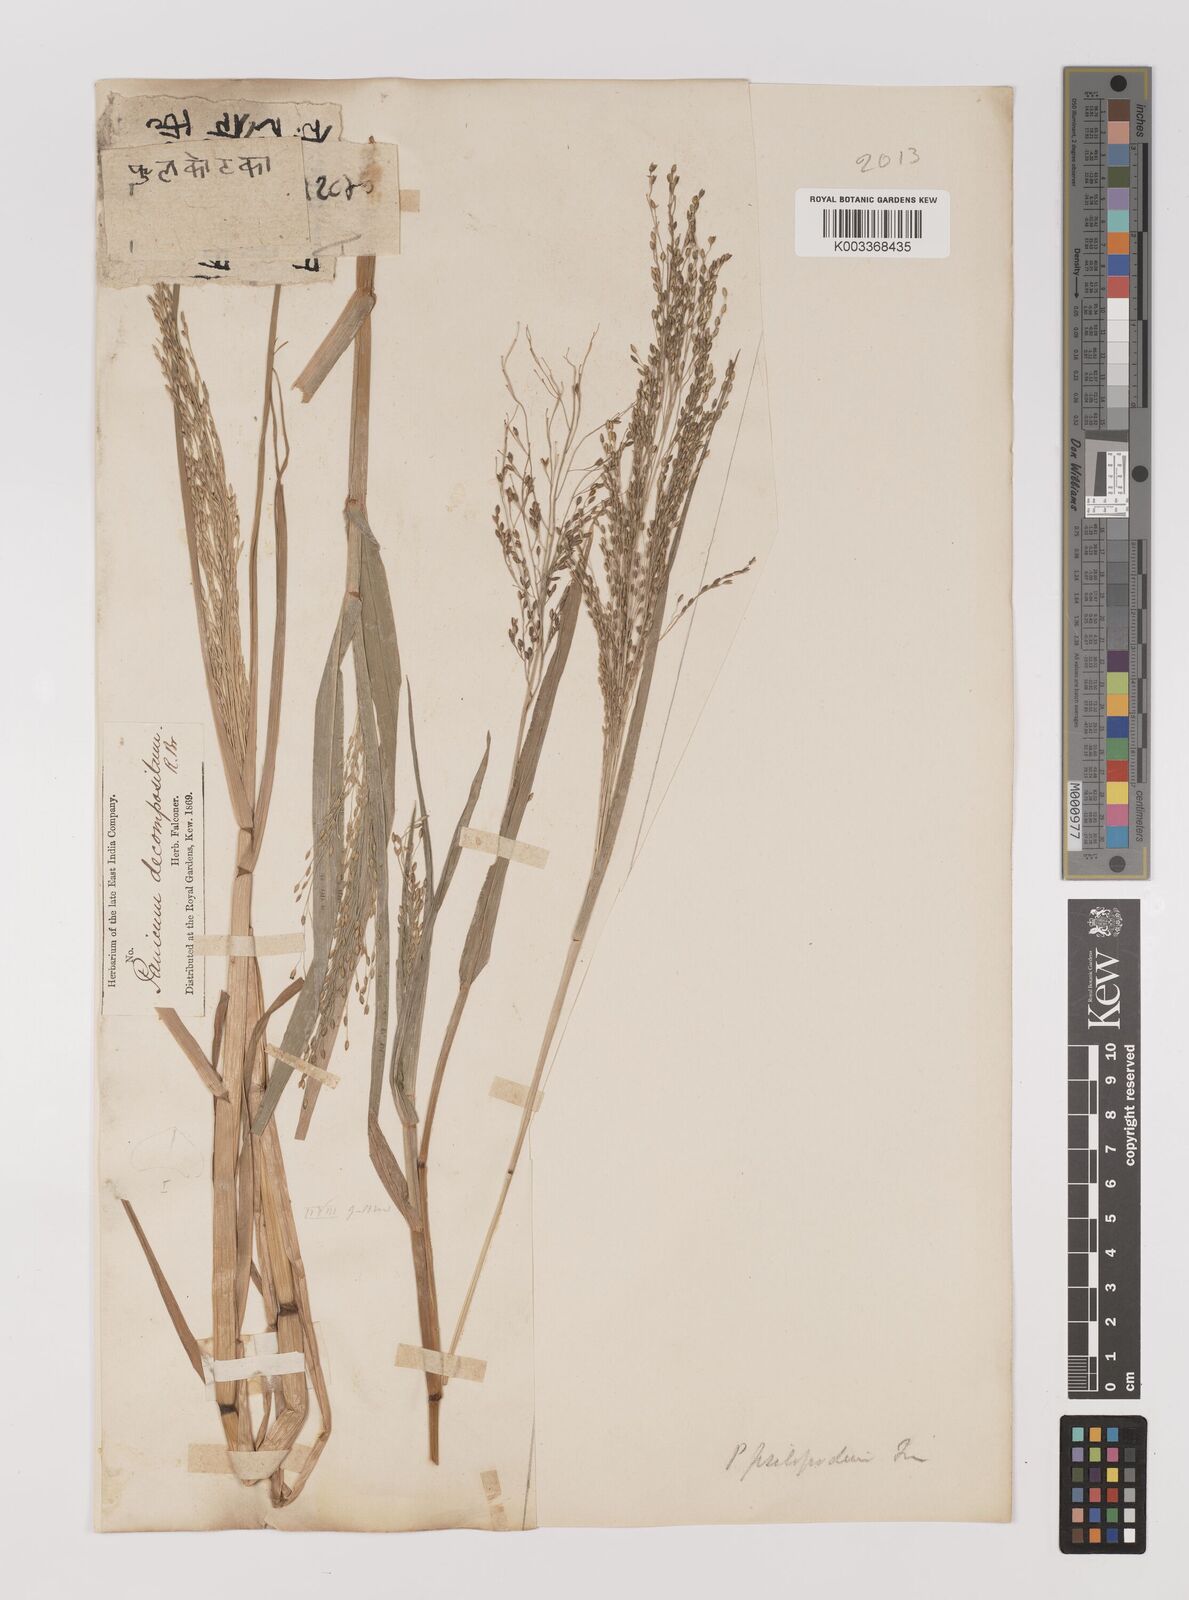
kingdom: Plantae
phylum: Tracheophyta
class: Liliopsida
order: Poales
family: Poaceae
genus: Panicum
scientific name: Panicum sumatrense
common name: Little millet
